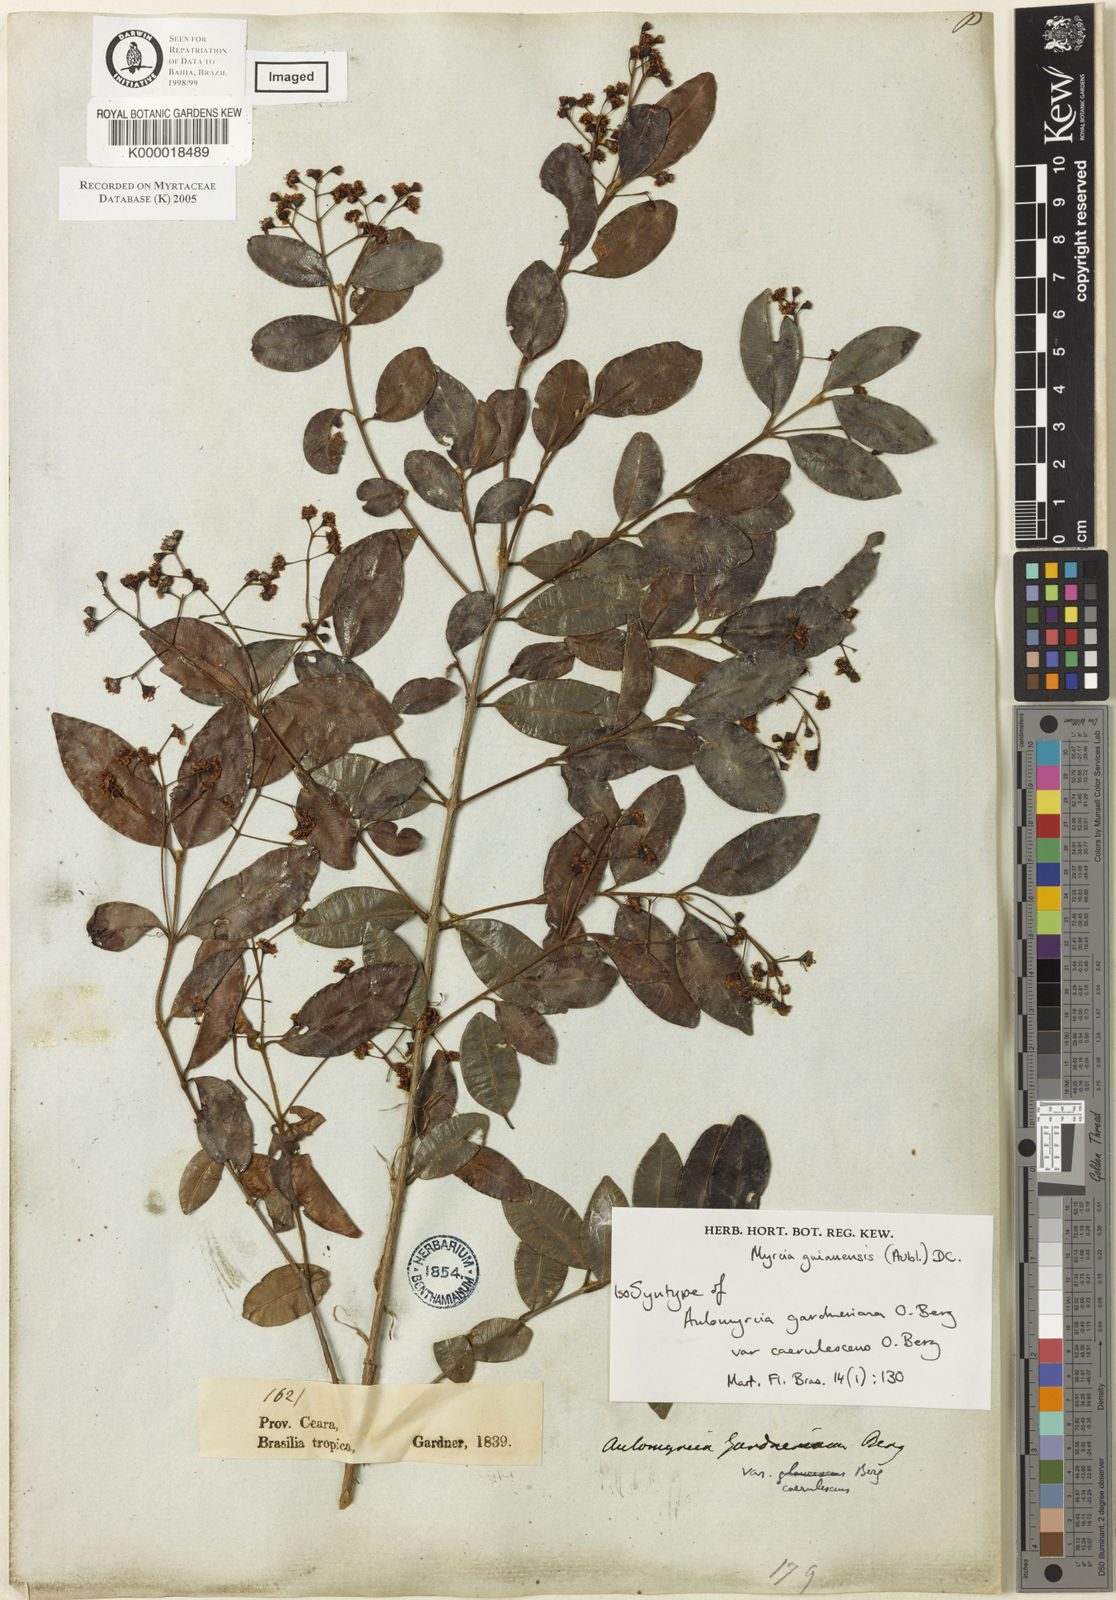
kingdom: Plantae
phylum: Tracheophyta
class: Magnoliopsida
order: Myrtales
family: Myrtaceae
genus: Myrcia
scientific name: Myrcia guianensis
